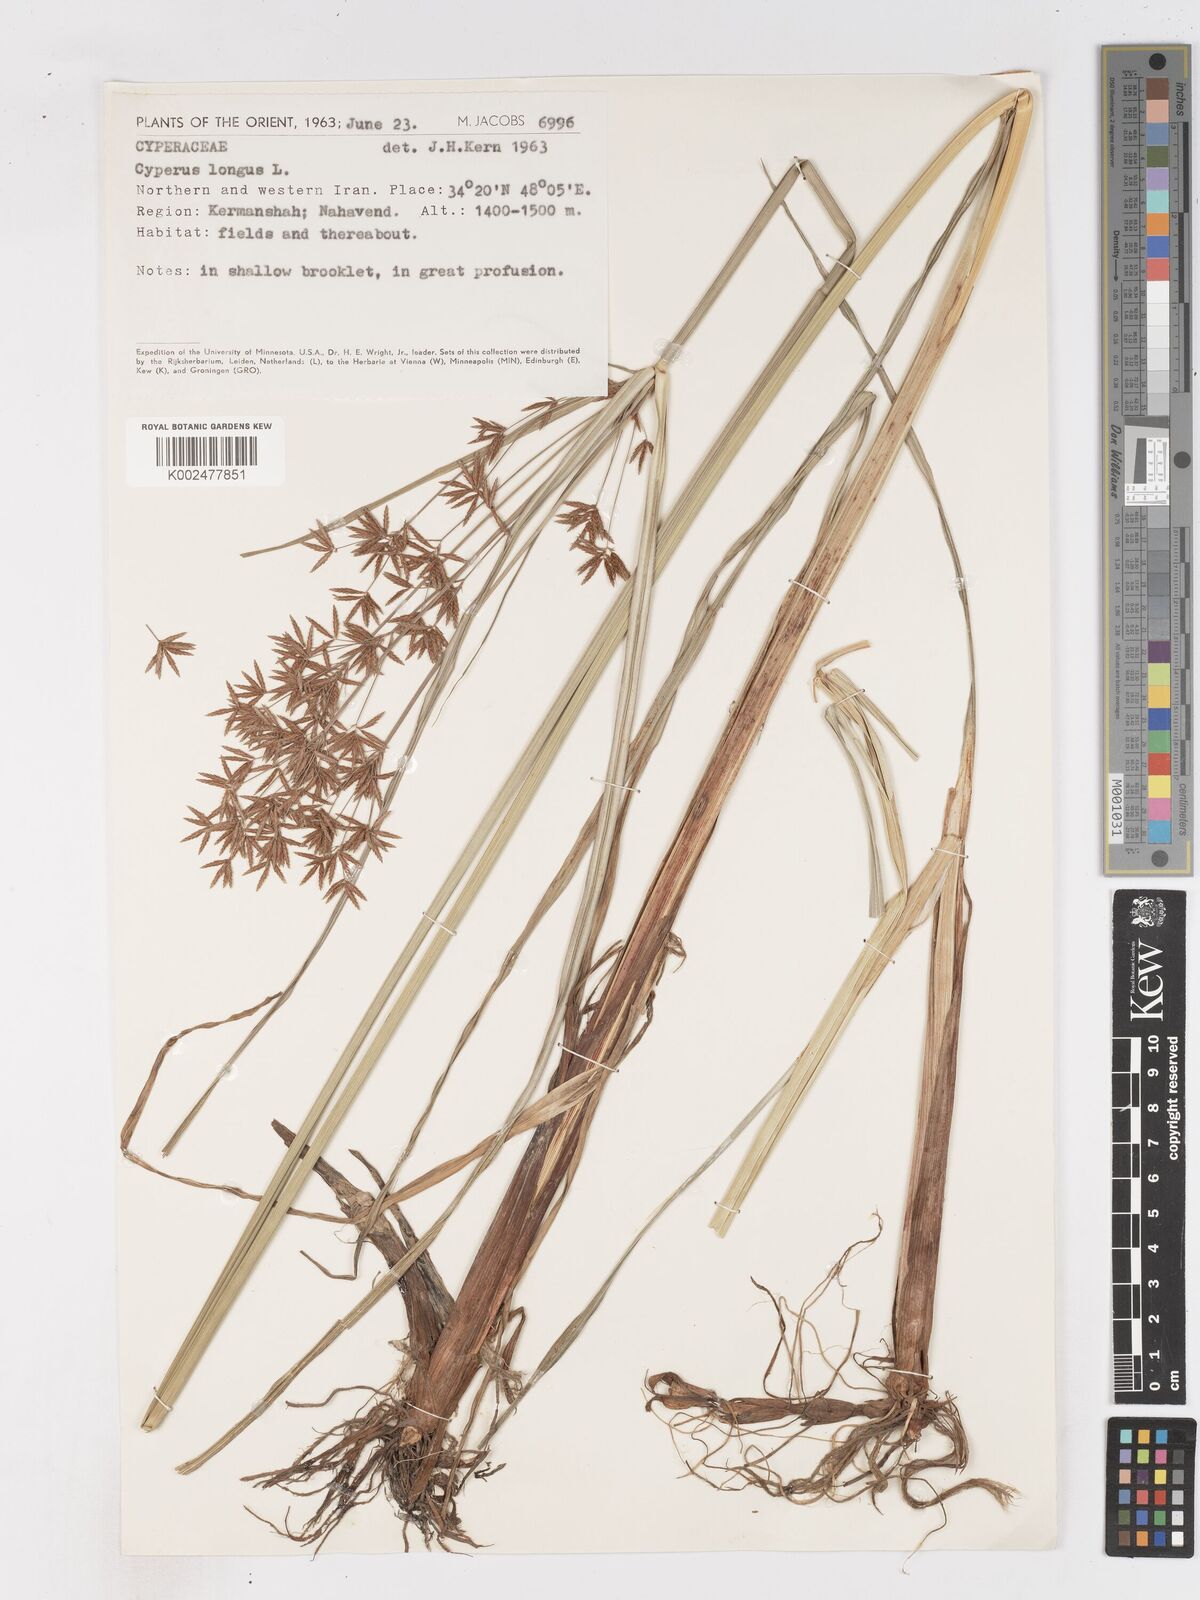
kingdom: Plantae
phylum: Tracheophyta
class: Liliopsida
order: Poales
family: Cyperaceae
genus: Cyperus
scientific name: Cyperus longus
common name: Galingale
